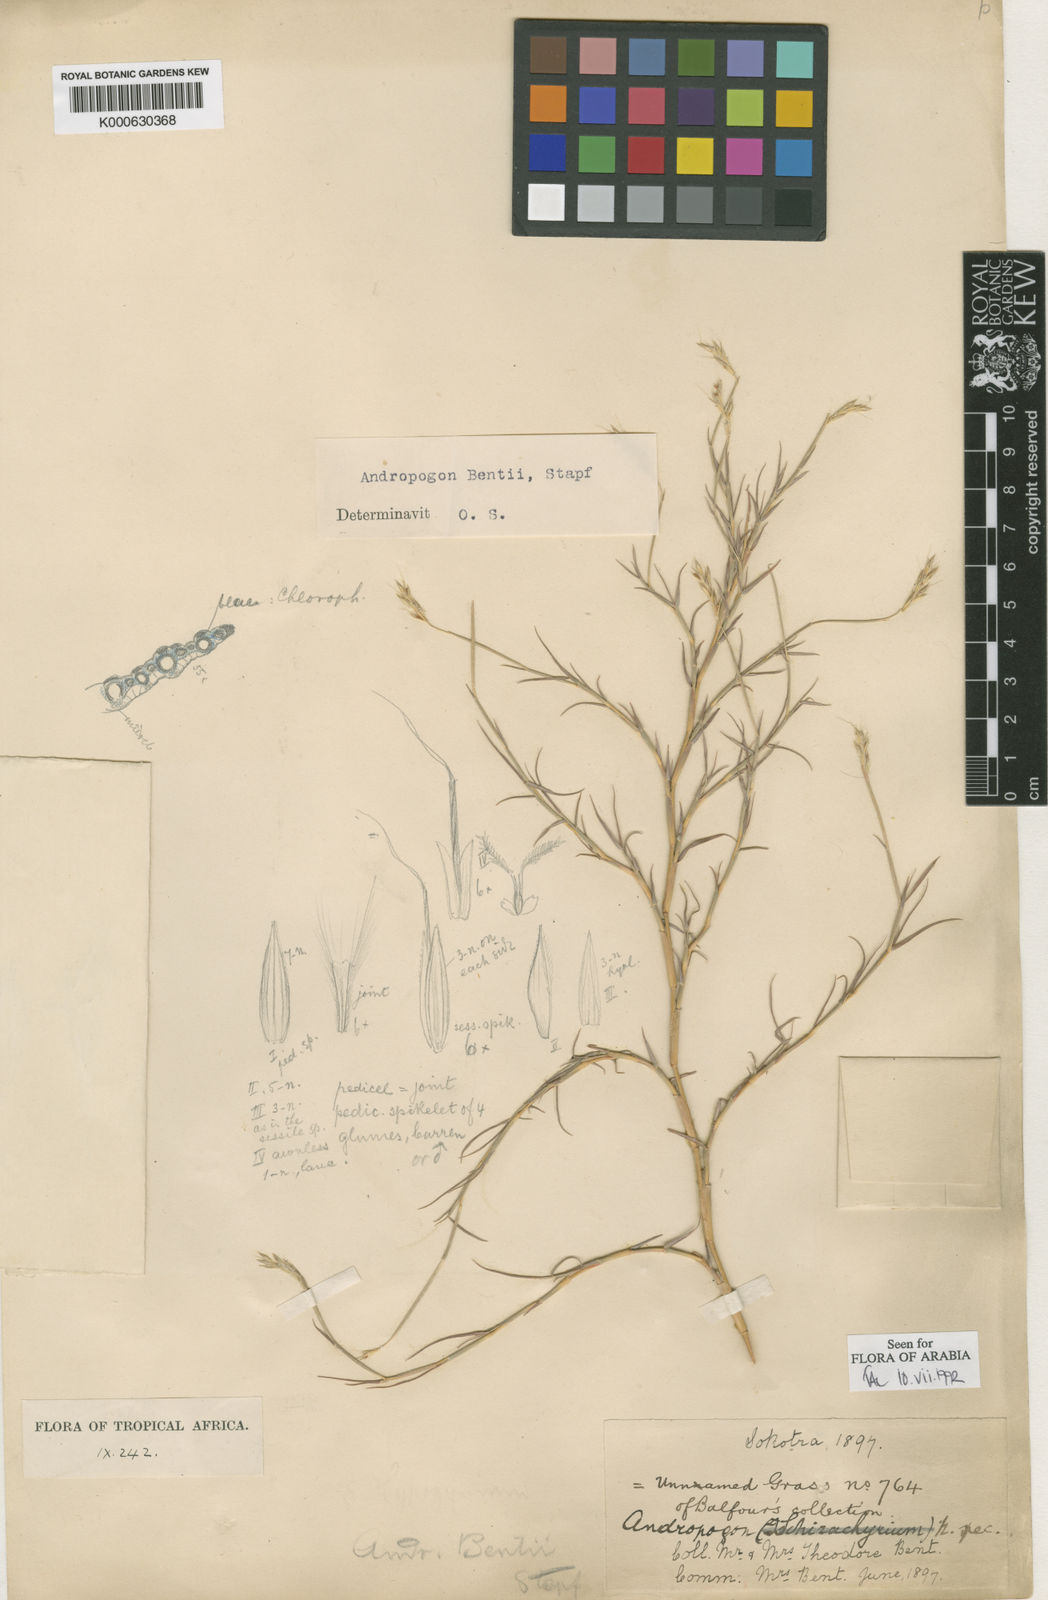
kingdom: Plantae
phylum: Tracheophyta
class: Liliopsida
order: Poales
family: Poaceae
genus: Andropogon
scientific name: Andropogon bentii
